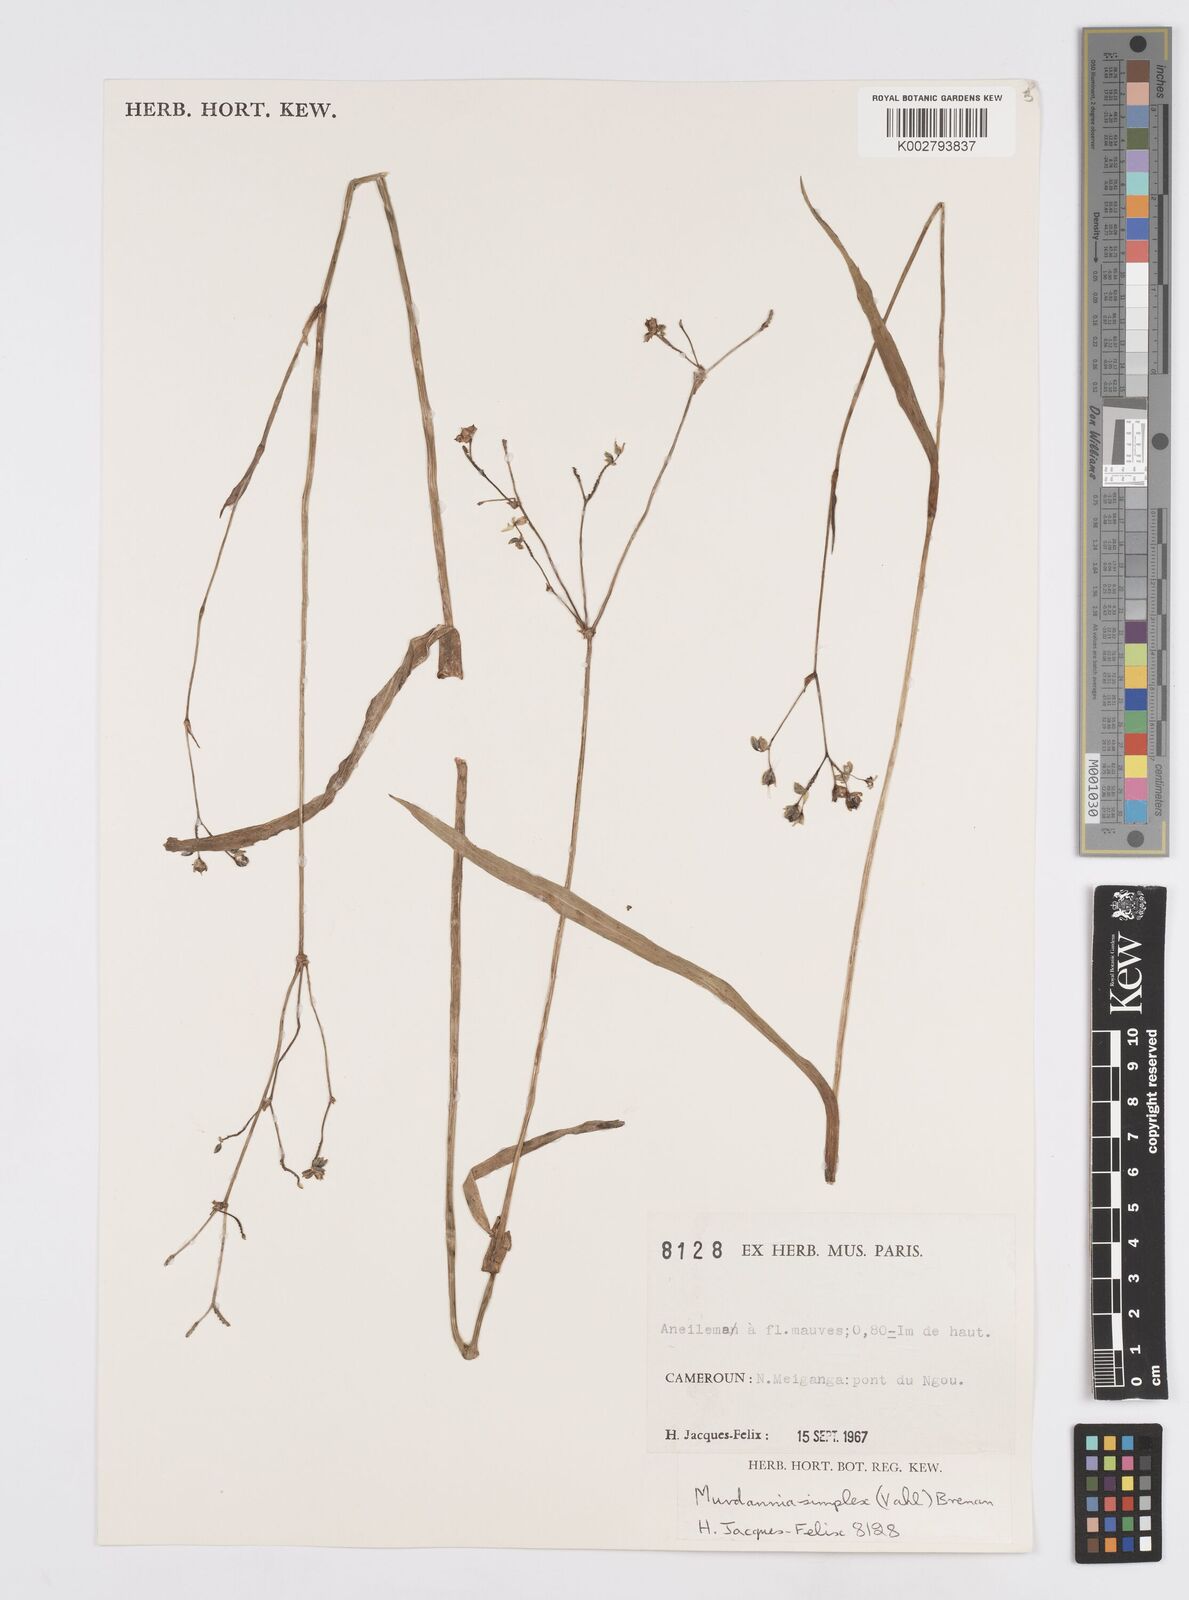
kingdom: Plantae
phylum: Tracheophyta
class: Liliopsida
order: Commelinales
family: Commelinaceae
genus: Murdannia
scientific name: Murdannia simplex
